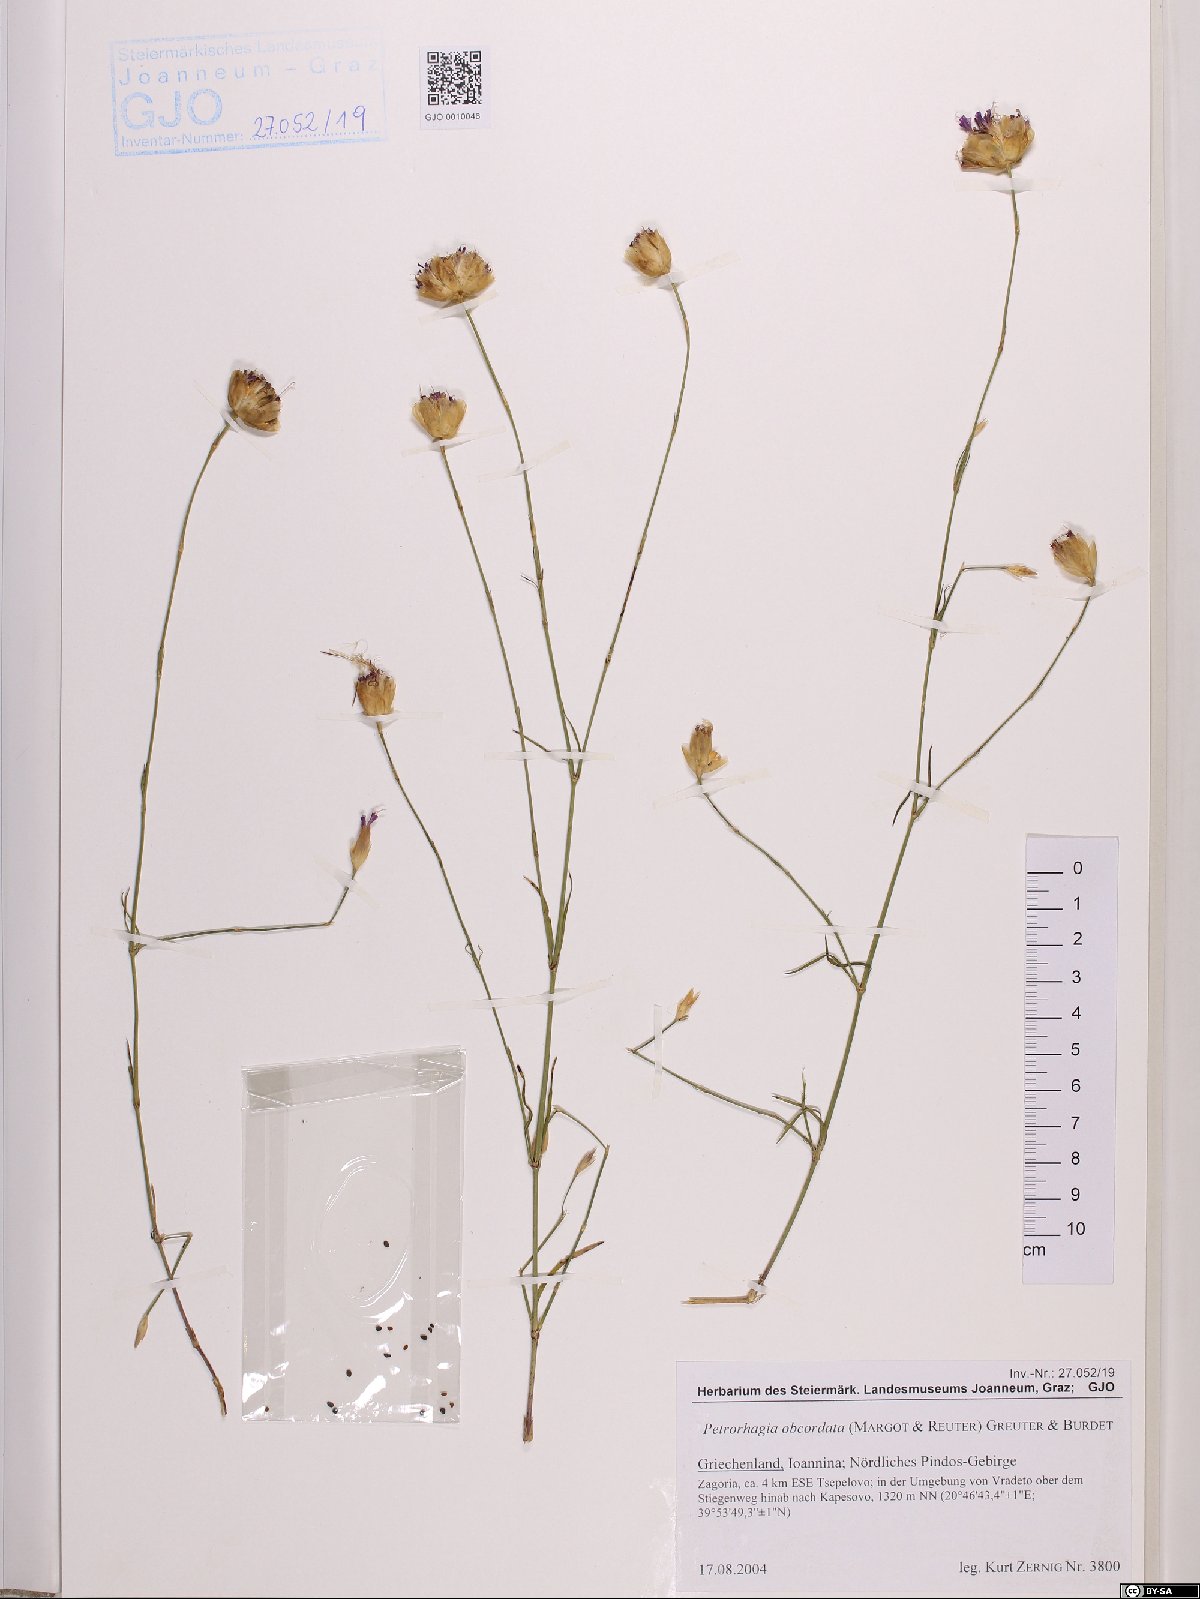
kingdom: Plantae
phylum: Tracheophyta
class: Magnoliopsida
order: Caryophyllales
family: Caryophyllaceae
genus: Petrorhagia
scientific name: Petrorhagia obcordata
